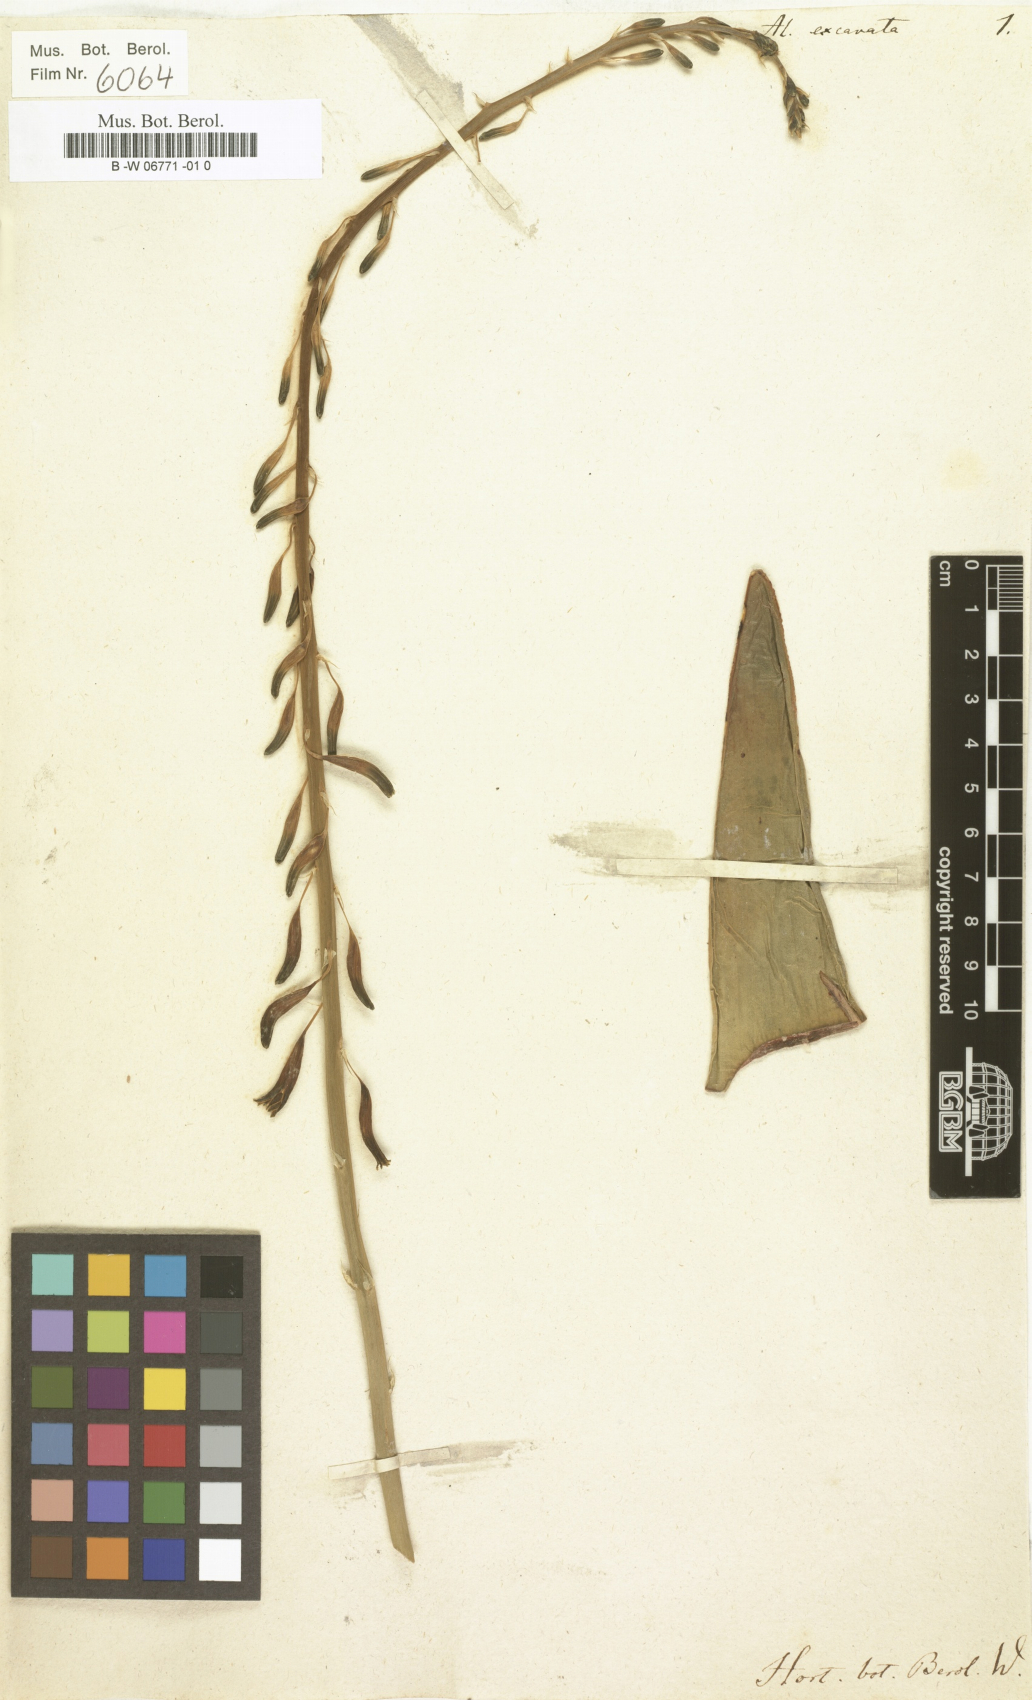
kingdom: Plantae
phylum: Tracheophyta
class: Liliopsida
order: Asparagales
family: Asphodelaceae
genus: Gasteria
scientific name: Gasteria carinata
